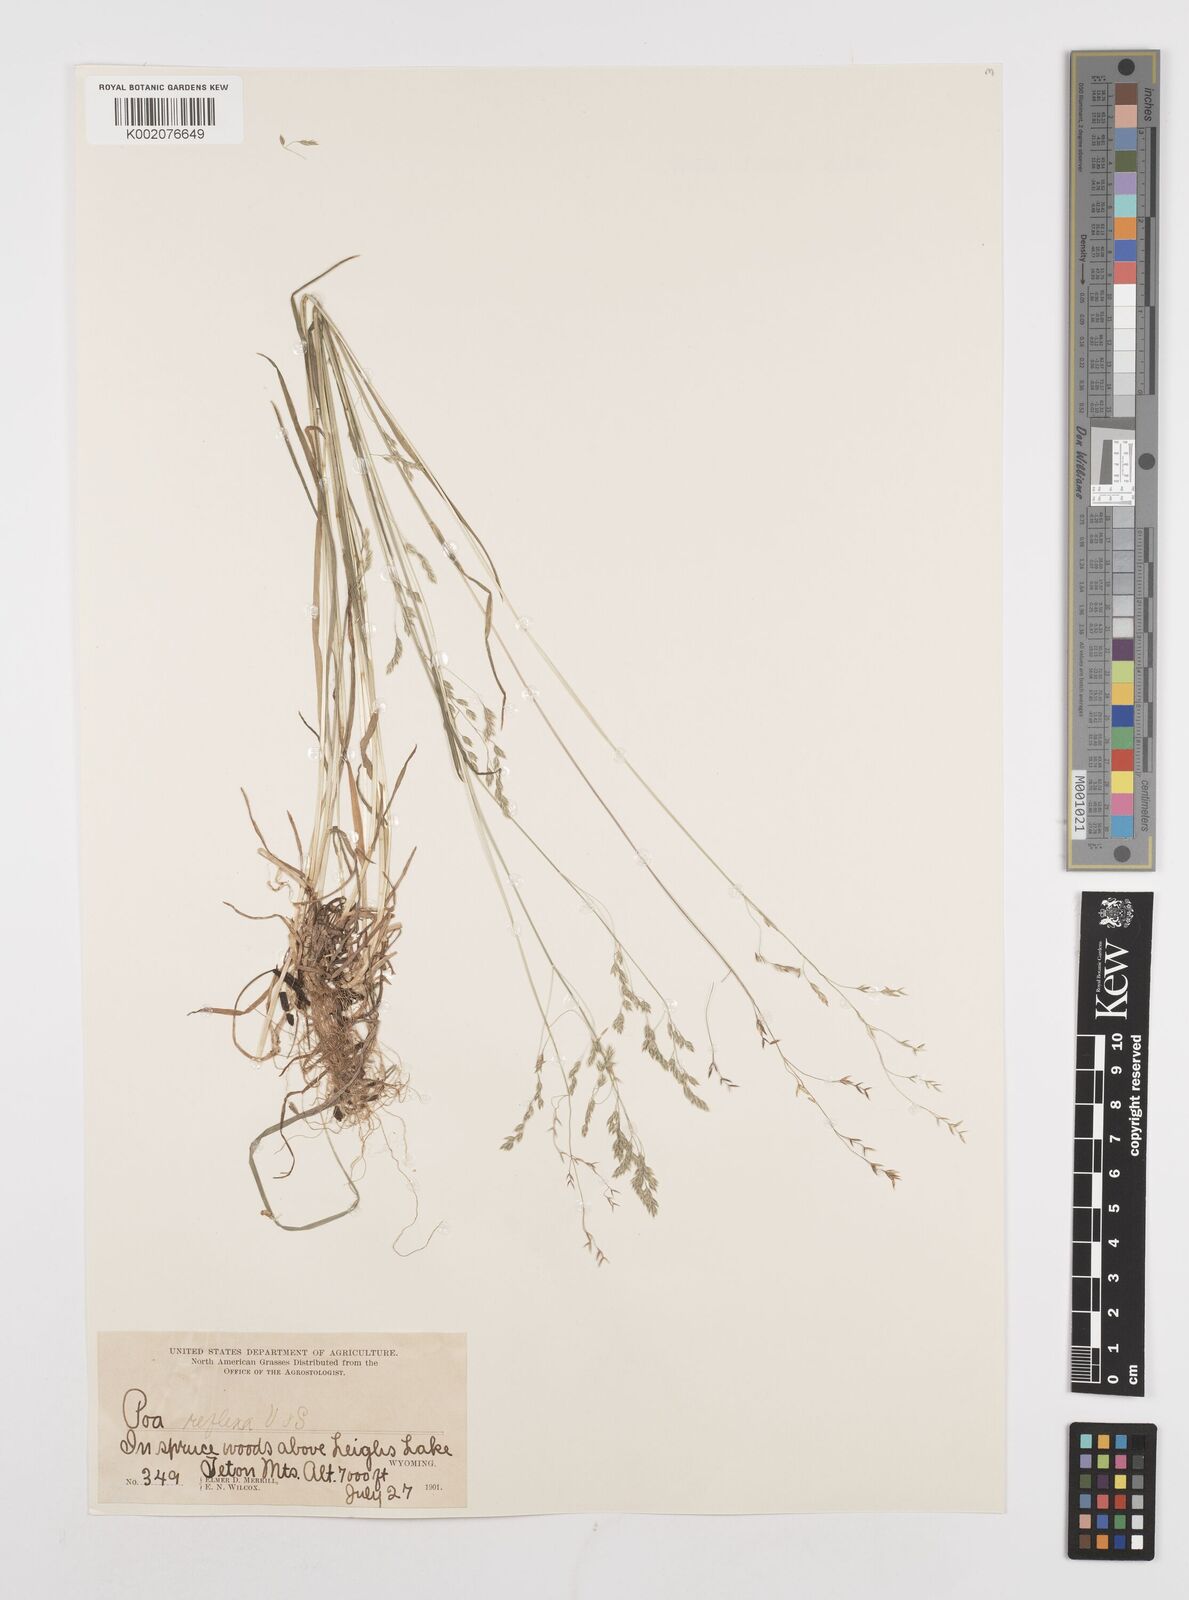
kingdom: Plantae
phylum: Tracheophyta
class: Liliopsida
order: Poales
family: Poaceae
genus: Poa
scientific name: Poa reflexa
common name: Nodding bluegrass
